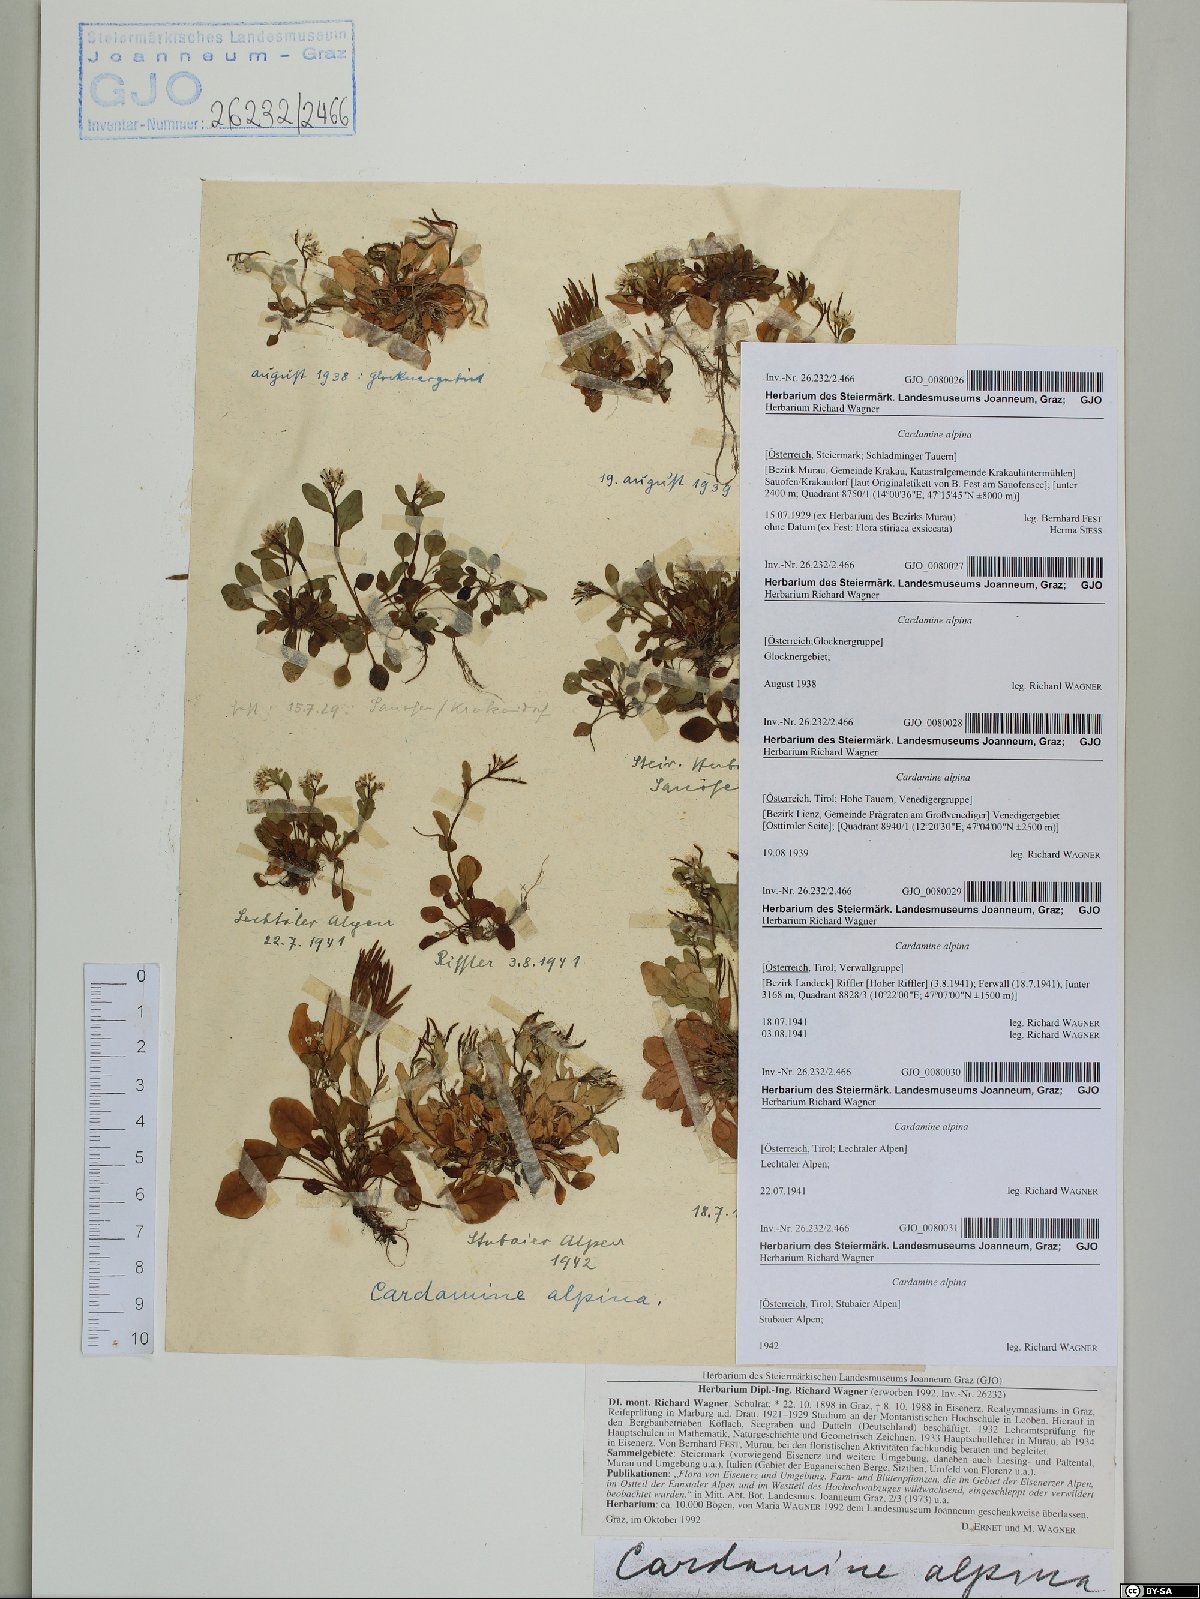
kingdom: Plantae
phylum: Tracheophyta
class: Magnoliopsida
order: Brassicales
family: Brassicaceae
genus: Cardamine
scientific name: Cardamine bellidifolia
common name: Alpine bittercress
